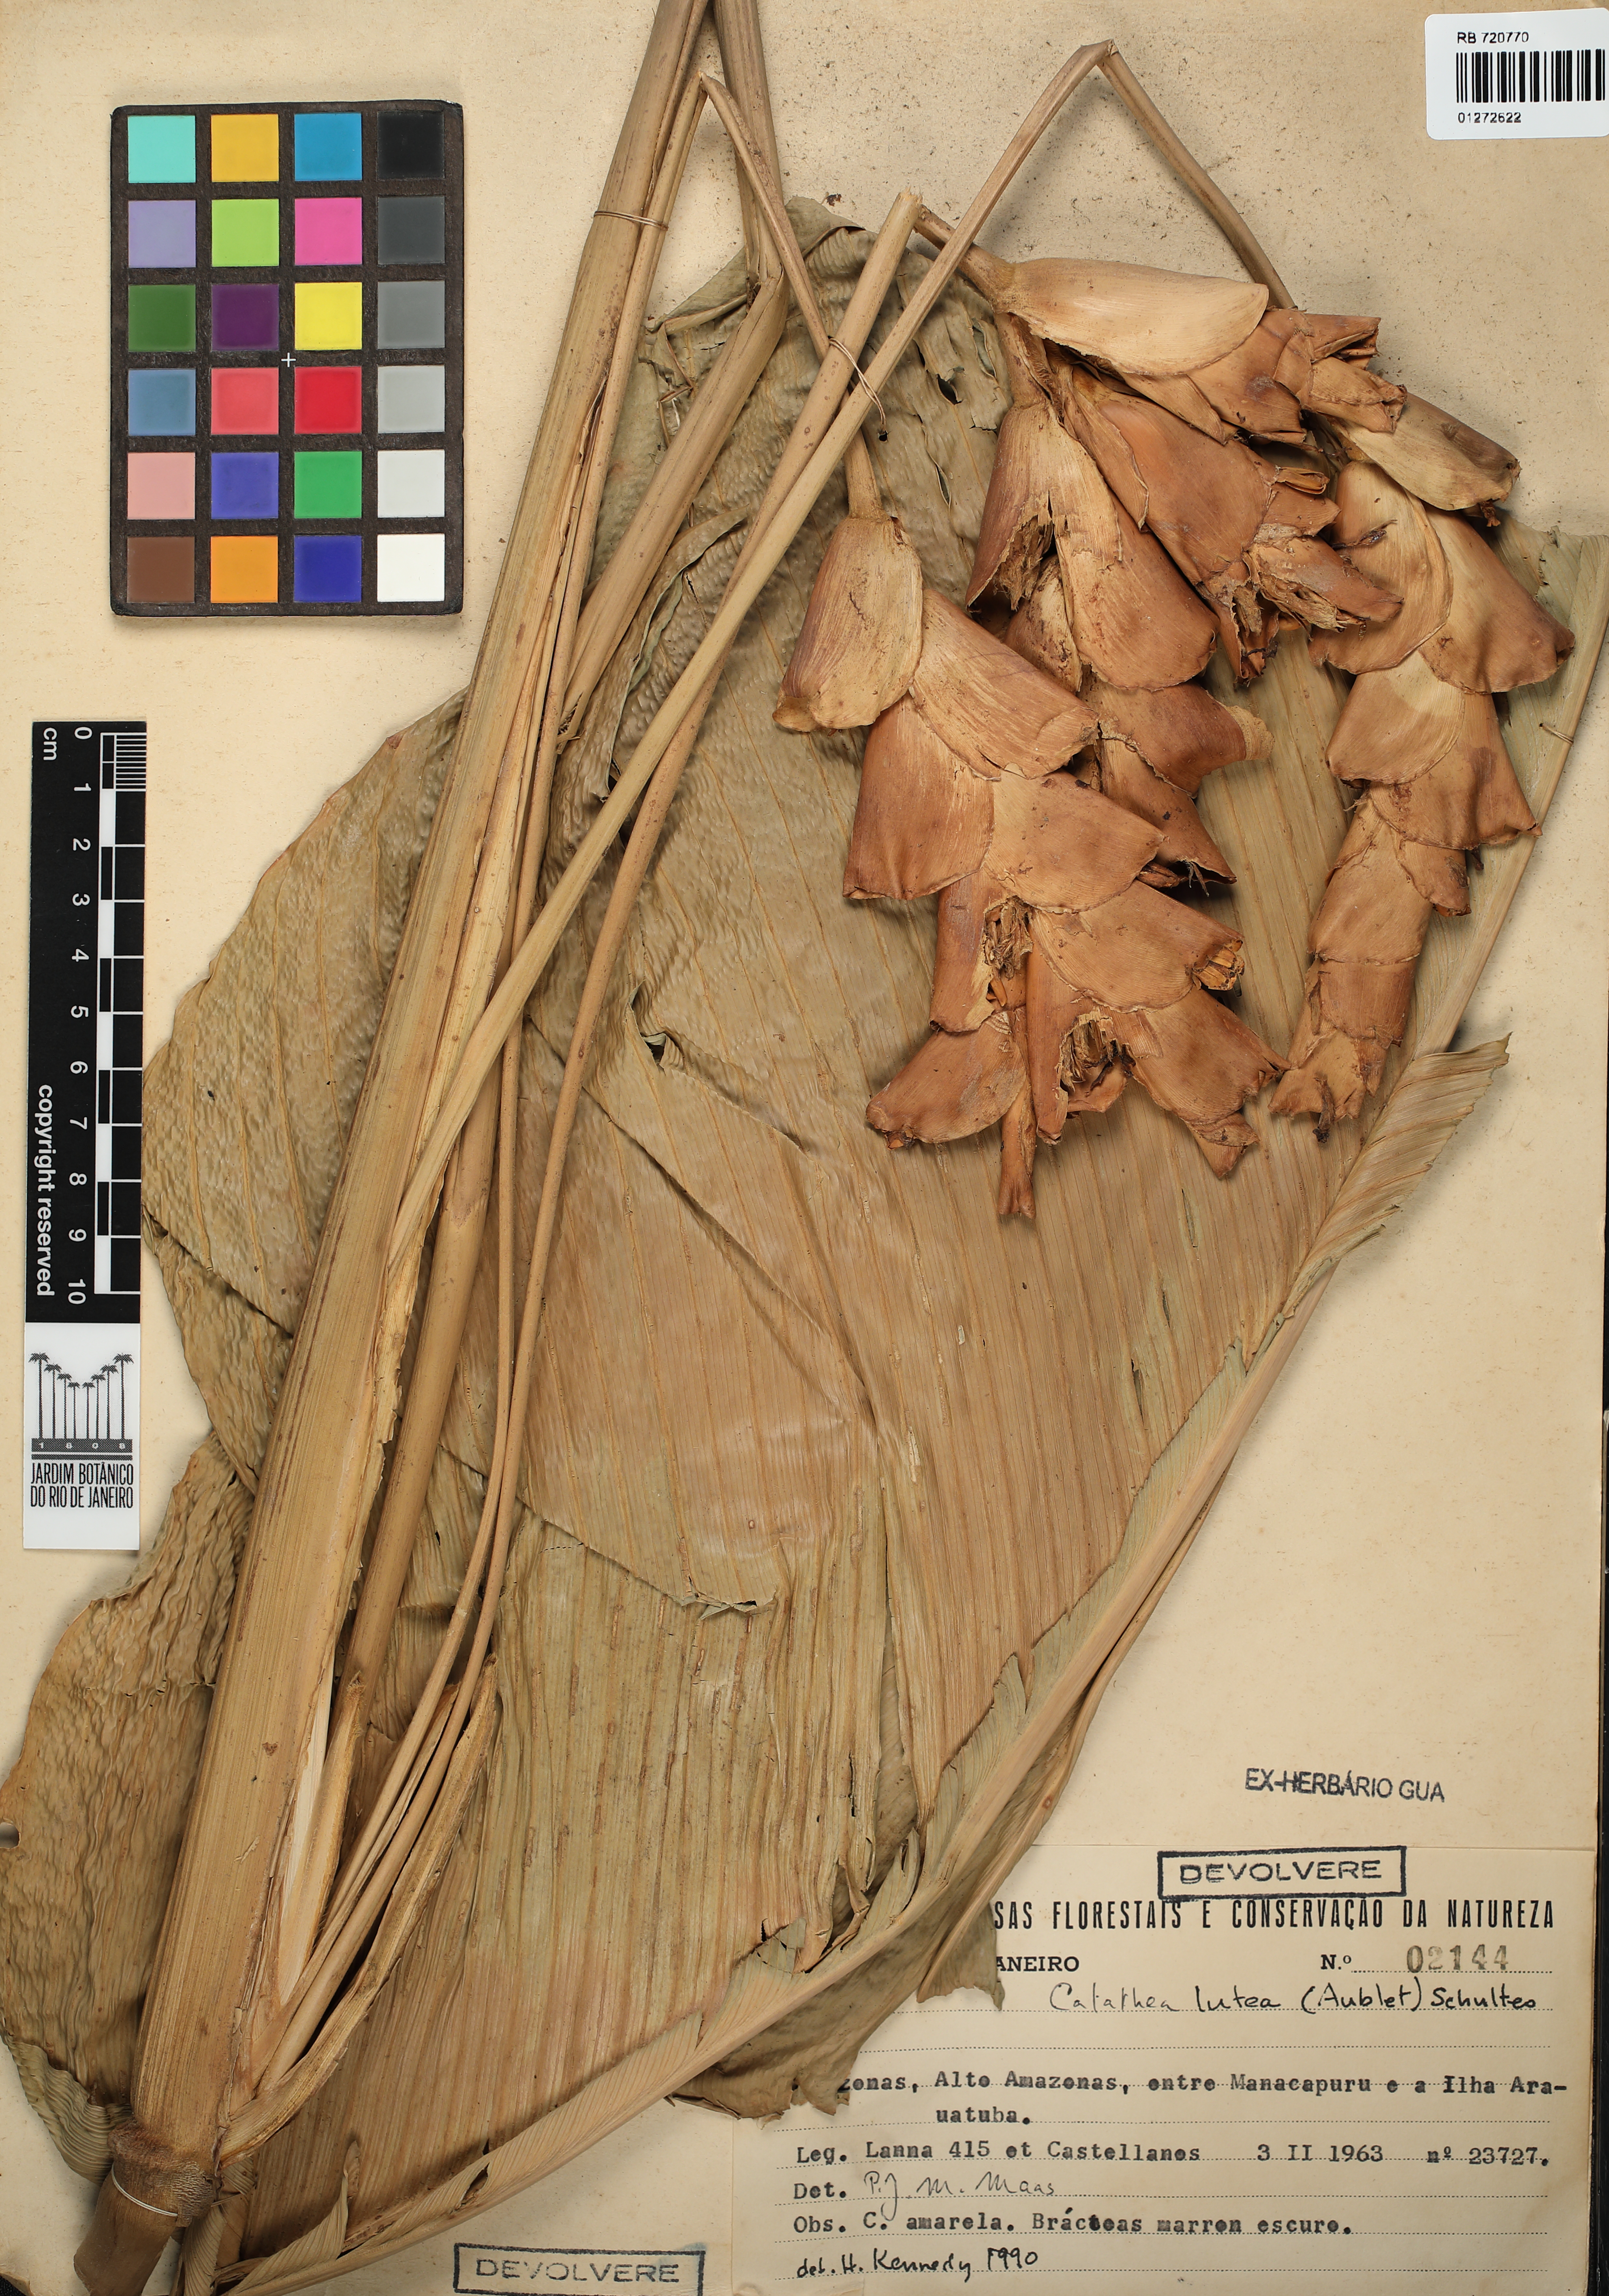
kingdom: Plantae
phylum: Tracheophyta
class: Liliopsida
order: Zingiberales
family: Marantaceae
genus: Calathea
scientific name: Calathea lutea
